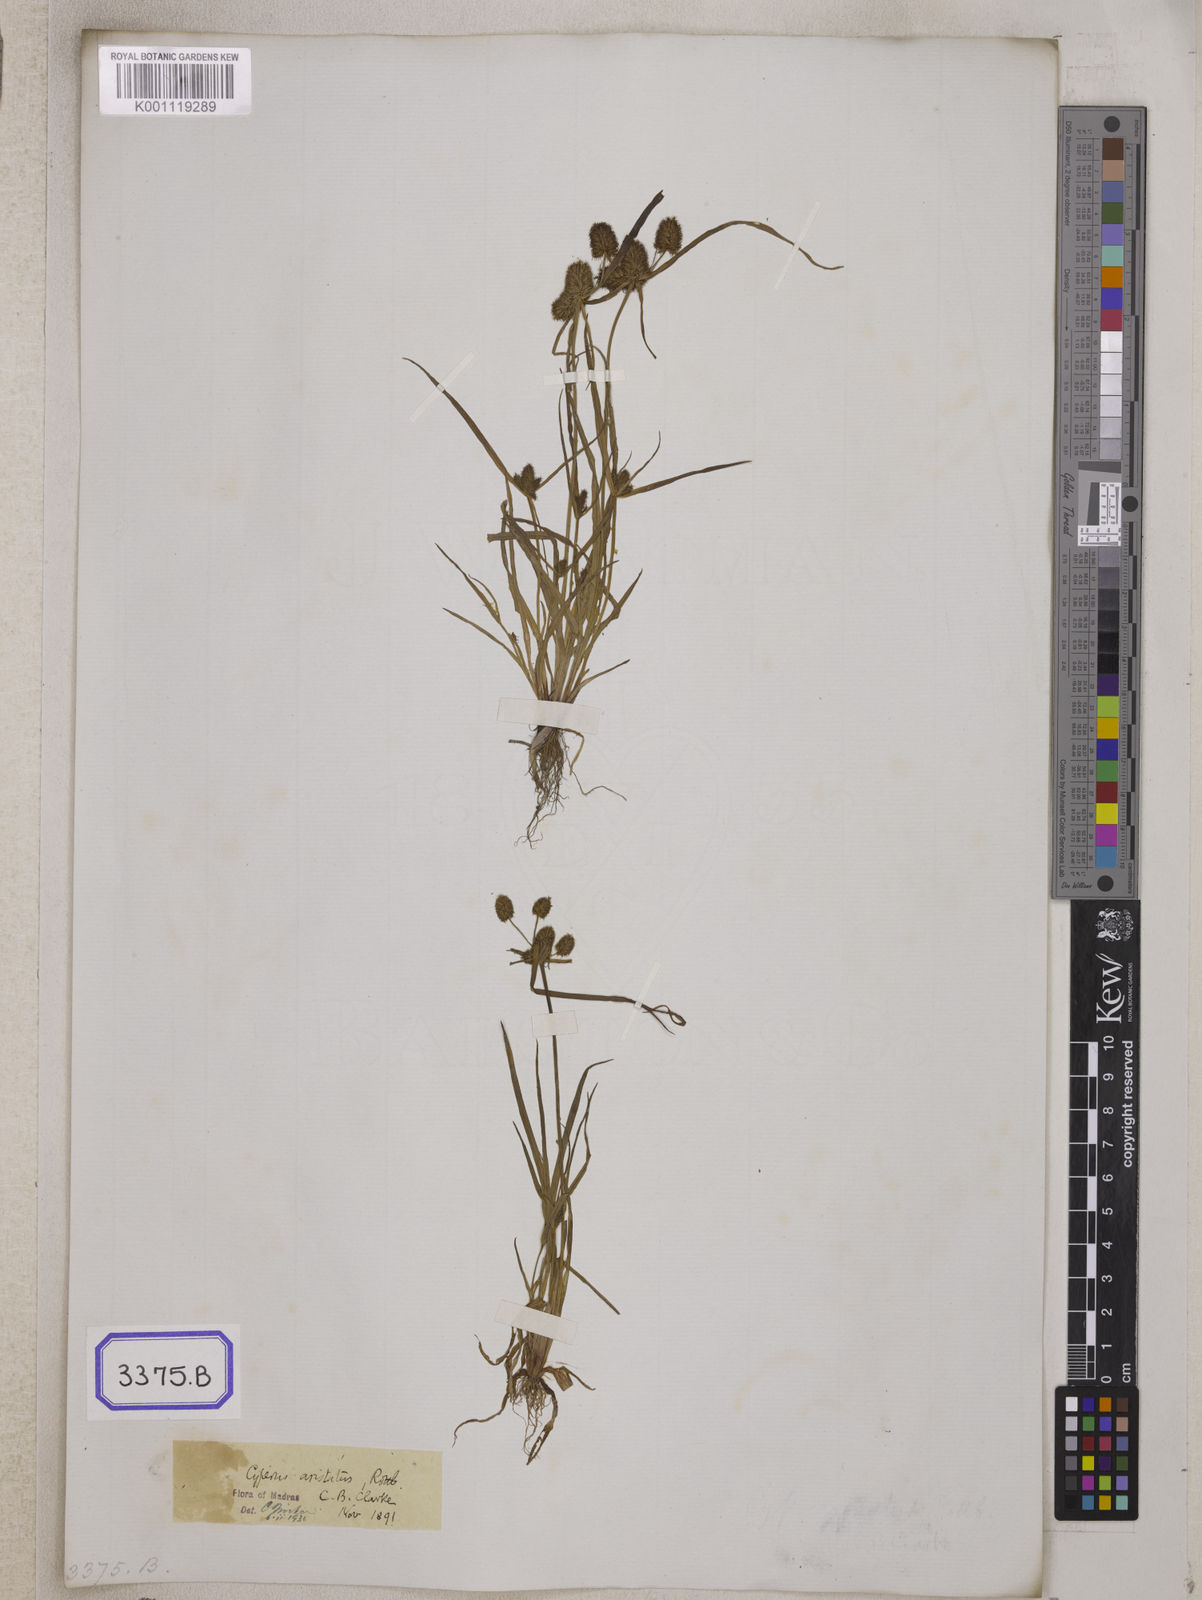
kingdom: Plantae
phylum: Tracheophyta
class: Liliopsida
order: Poales
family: Cyperaceae
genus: Cyperus
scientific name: Cyperus
